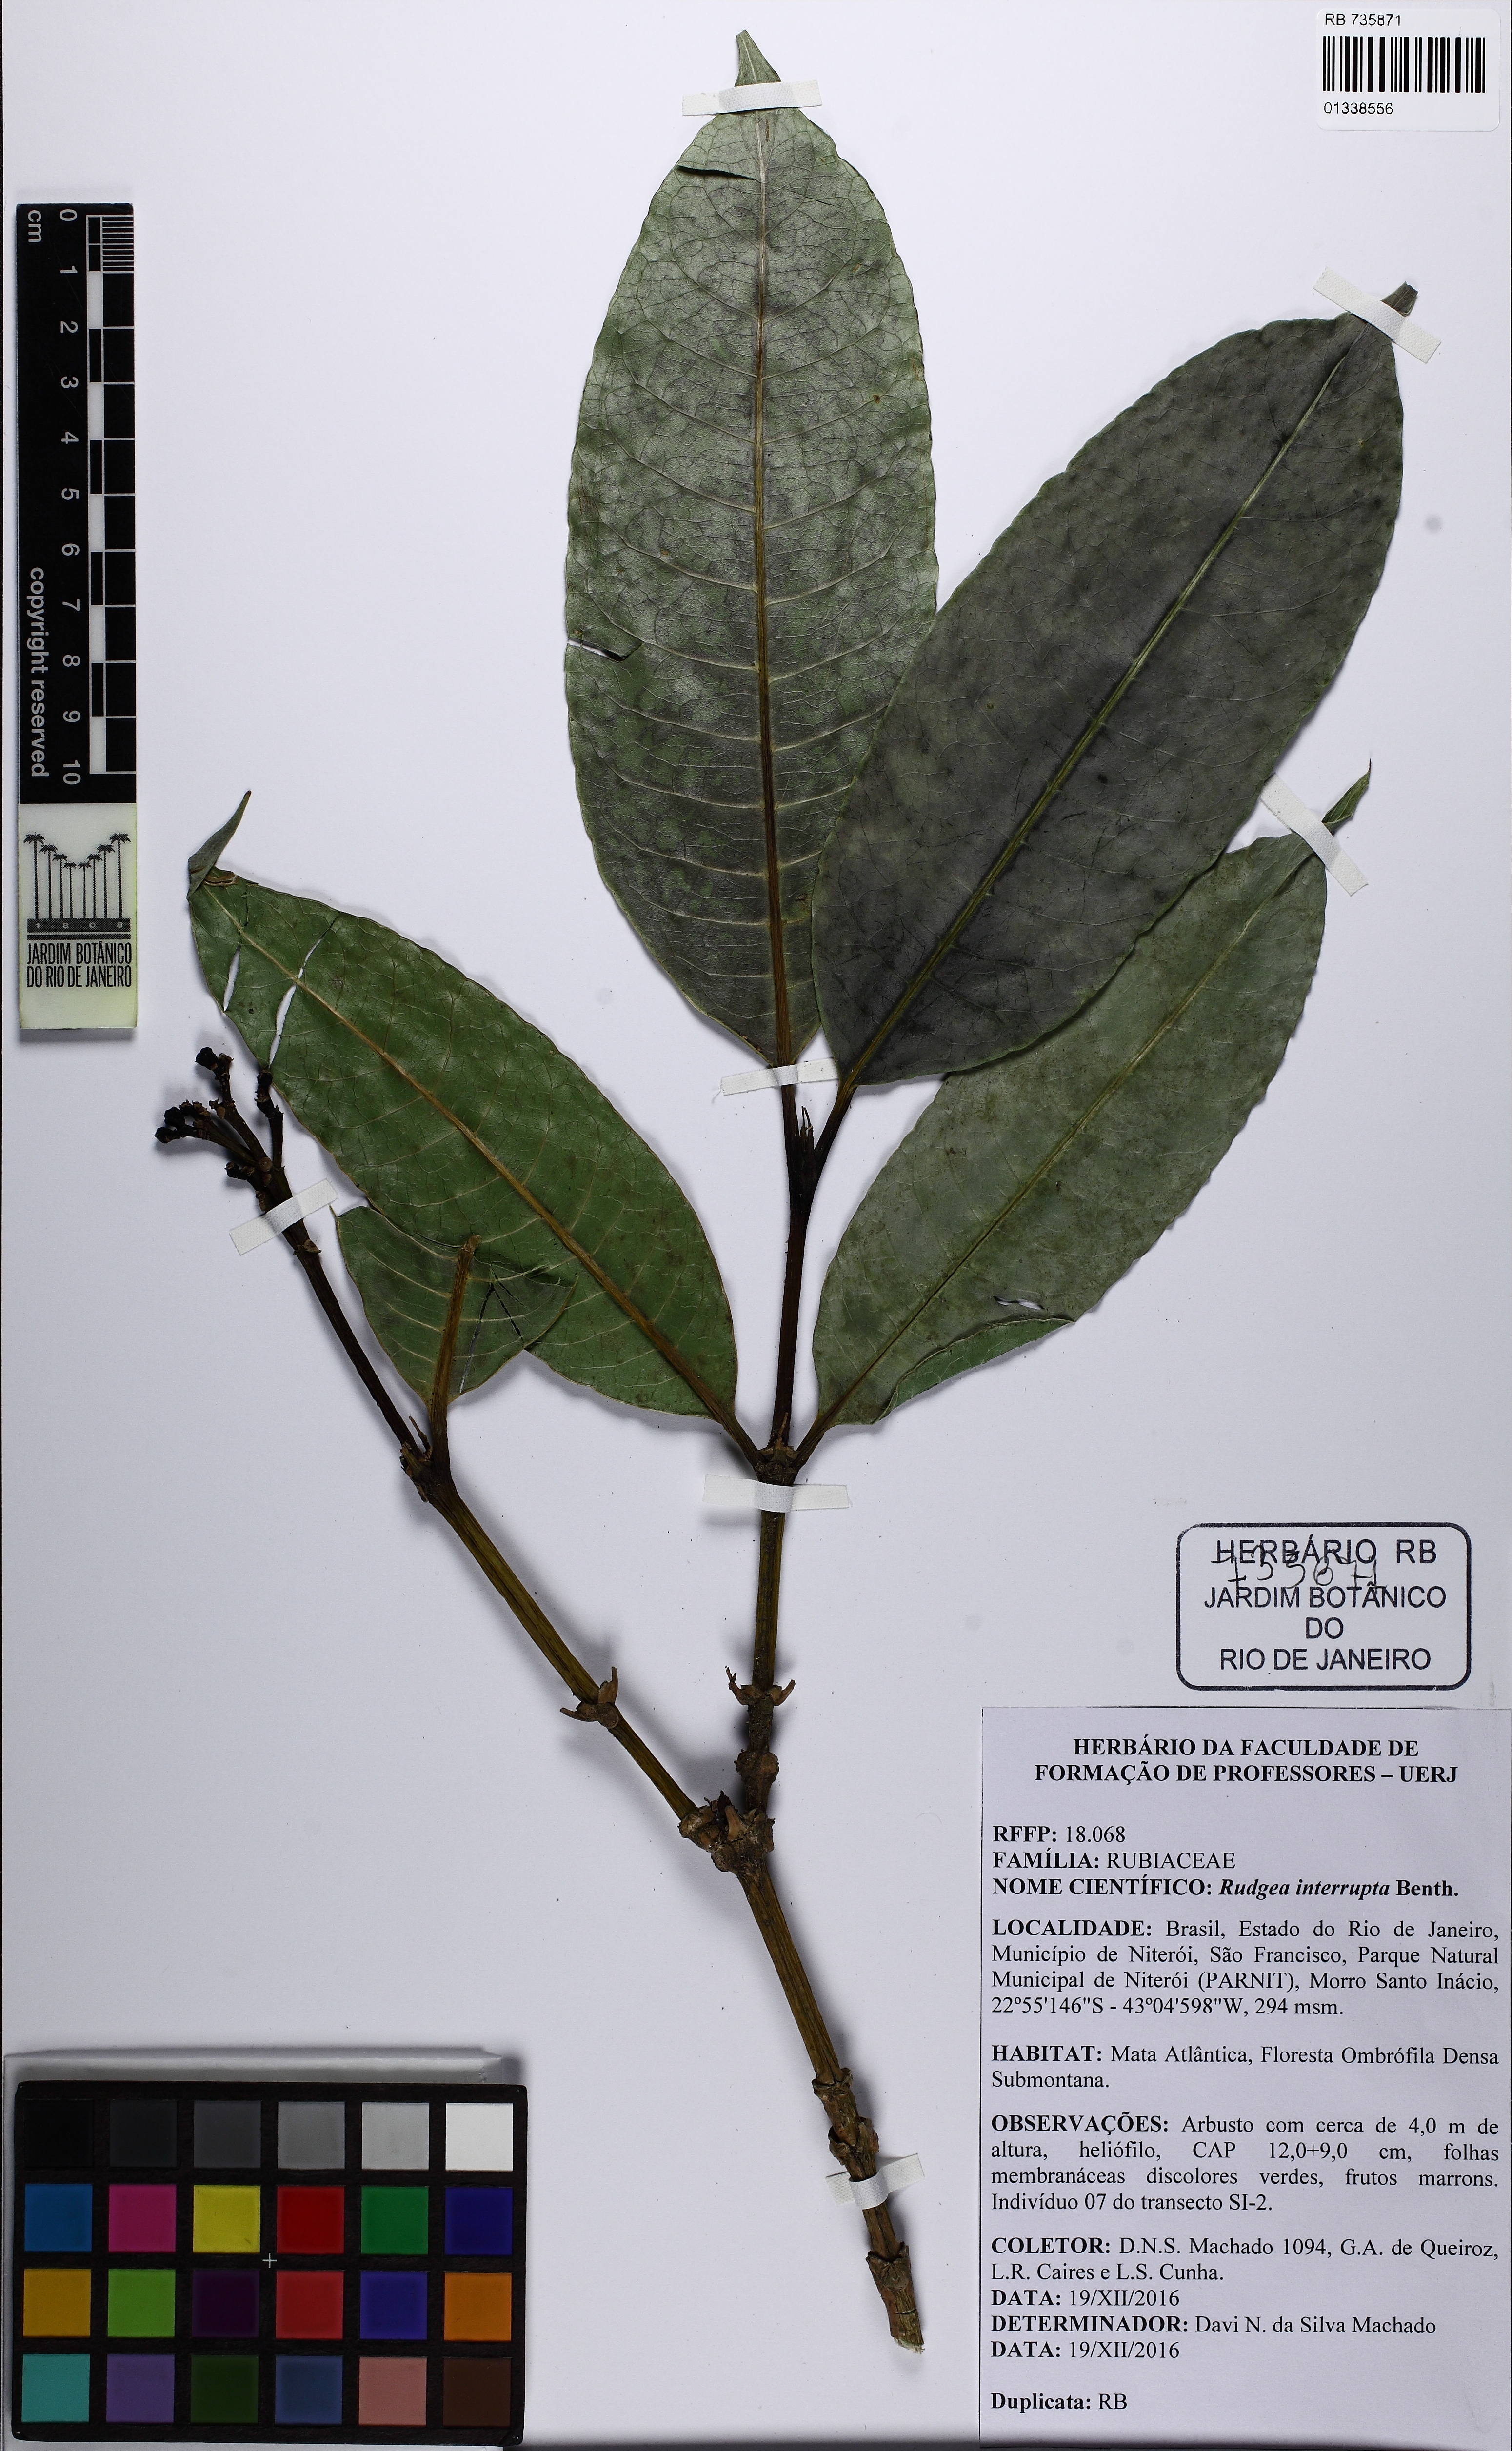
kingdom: Plantae
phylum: Tracheophyta
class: Magnoliopsida
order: Gentianales
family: Rubiaceae
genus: Rudgea
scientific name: Rudgea interrupta
